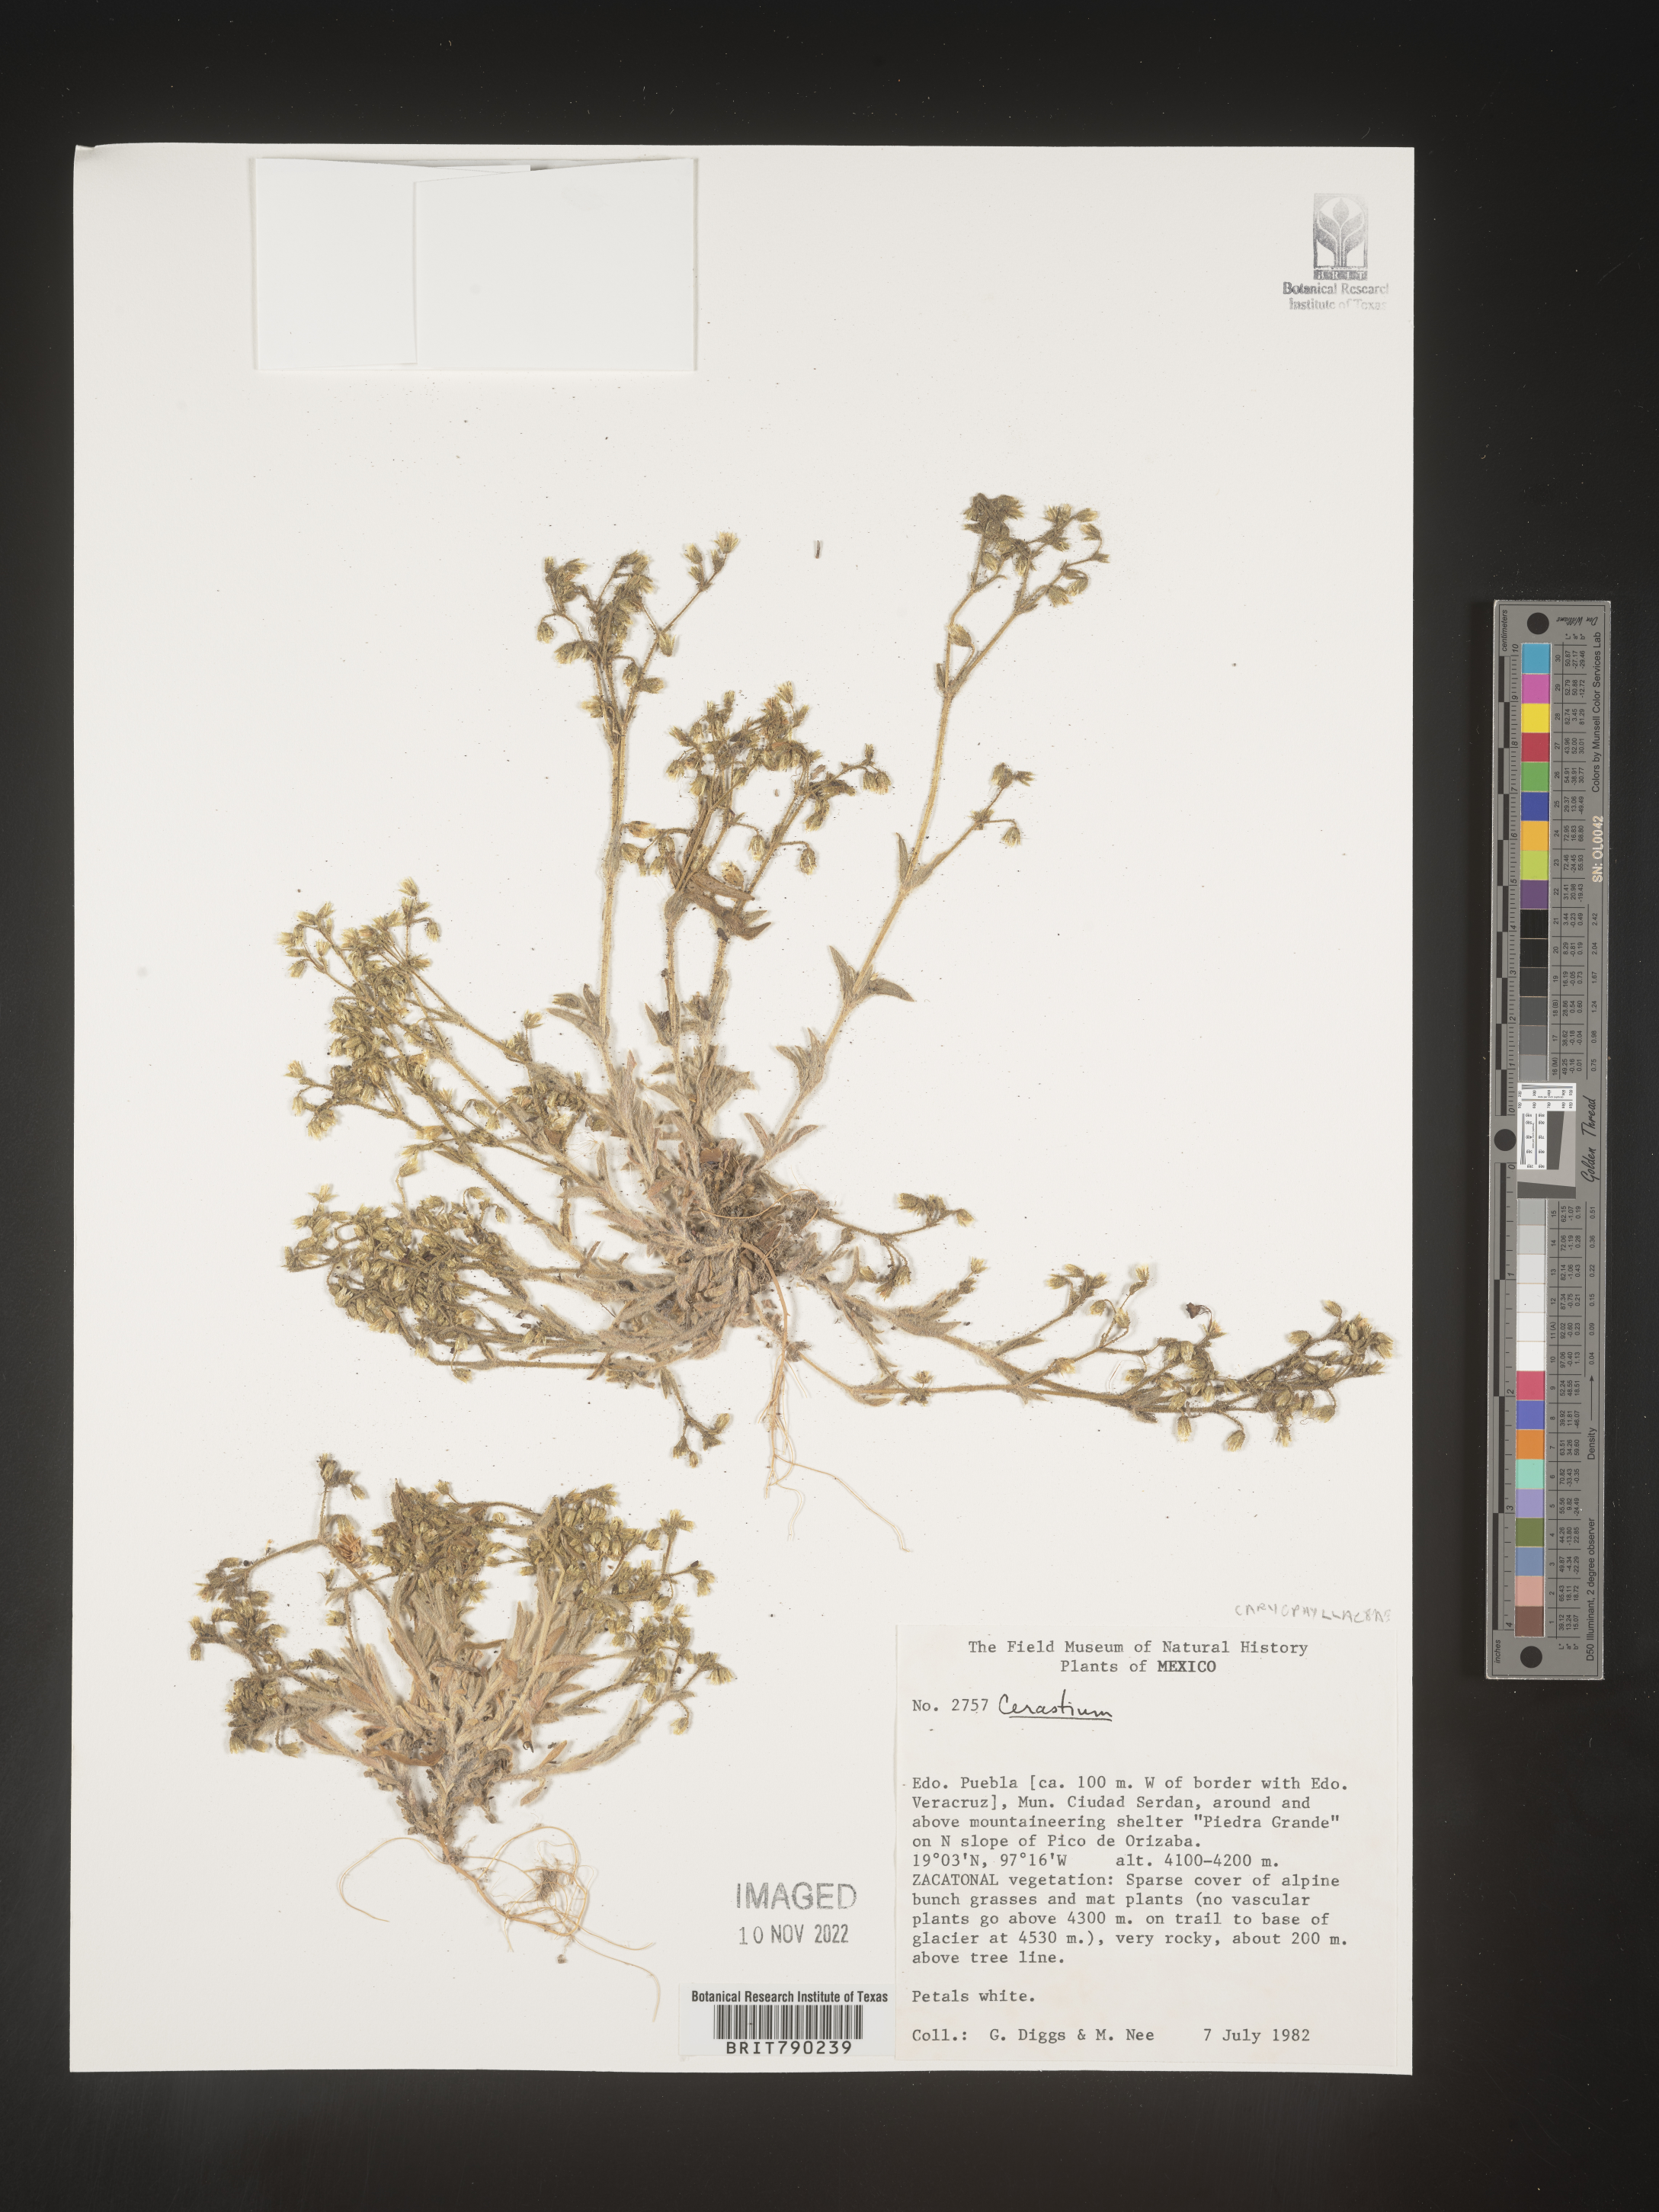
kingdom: Plantae
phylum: Tracheophyta
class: Magnoliopsida
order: Caryophyllales
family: Caryophyllaceae
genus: Cerastium
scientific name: Cerastium
